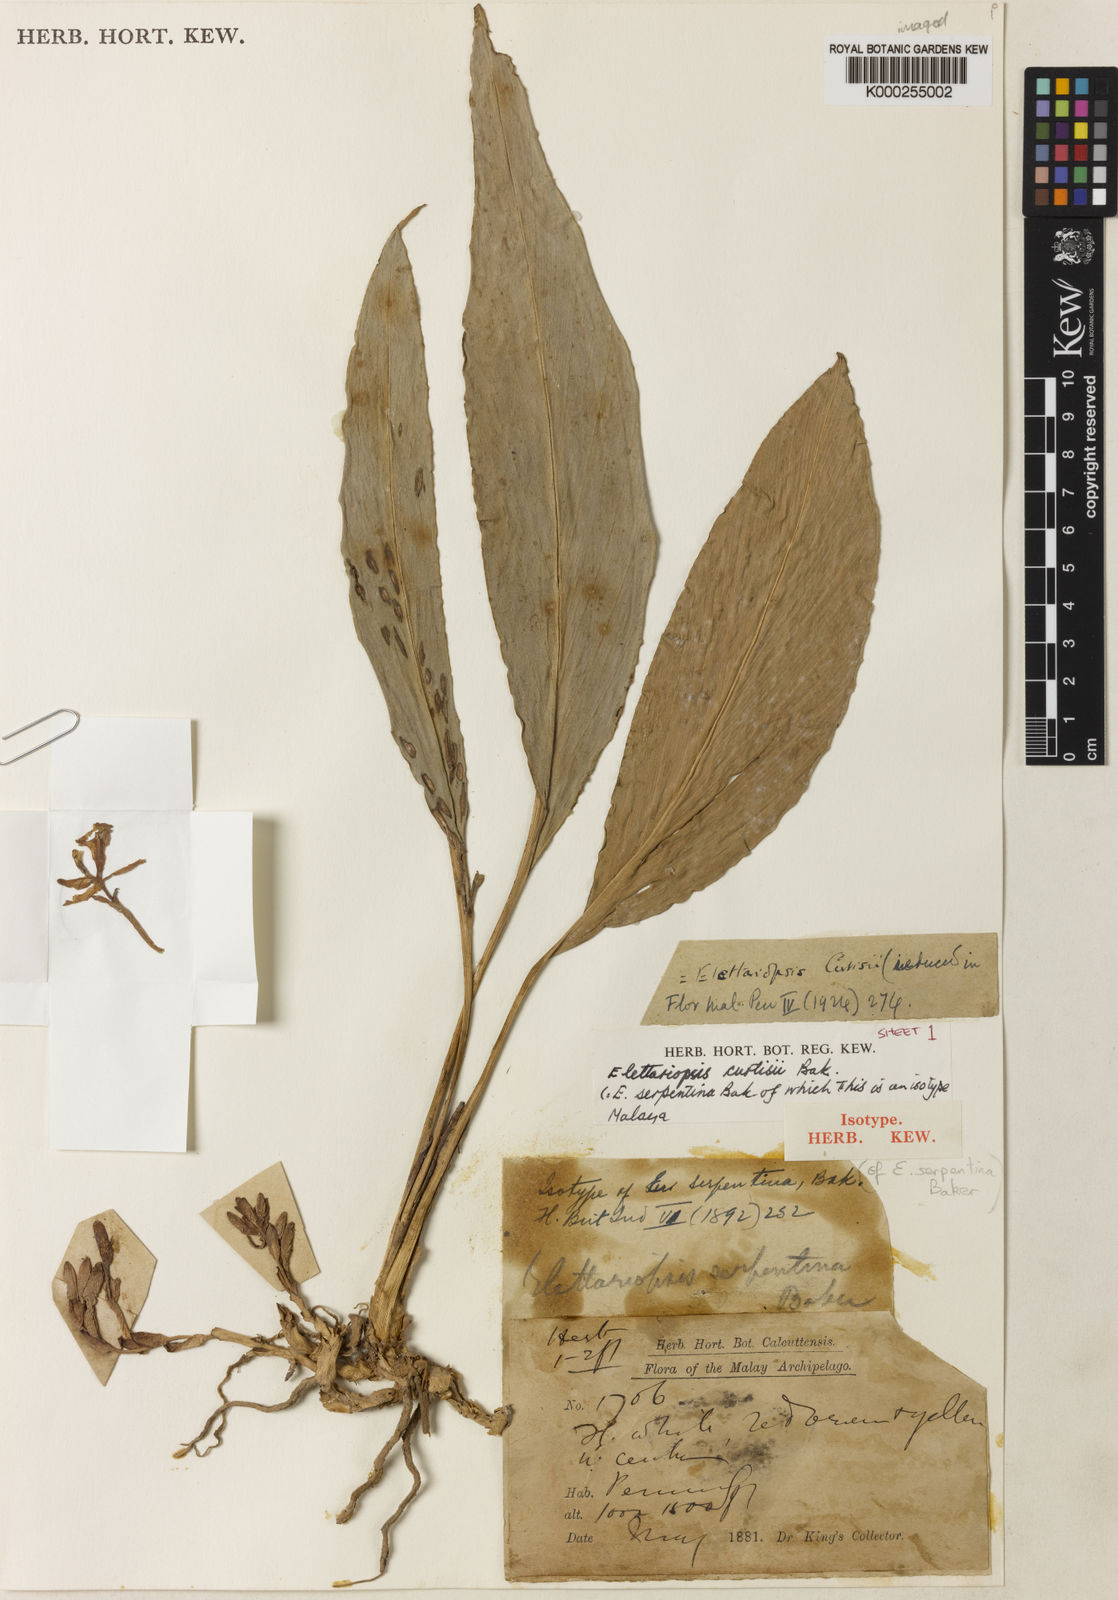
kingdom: Plantae
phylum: Tracheophyta
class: Liliopsida
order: Zingiberales
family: Zingiberaceae
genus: Amomum
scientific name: Amomum curtisii
